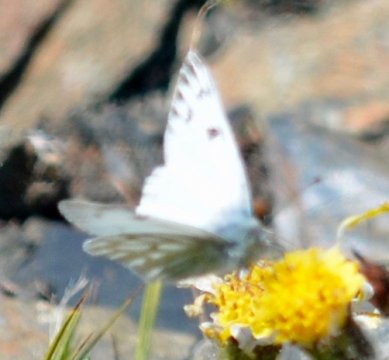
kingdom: Animalia
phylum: Arthropoda
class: Insecta
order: Lepidoptera
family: Pieridae
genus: Pontia
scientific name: Pontia occidentalis
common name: Western White
